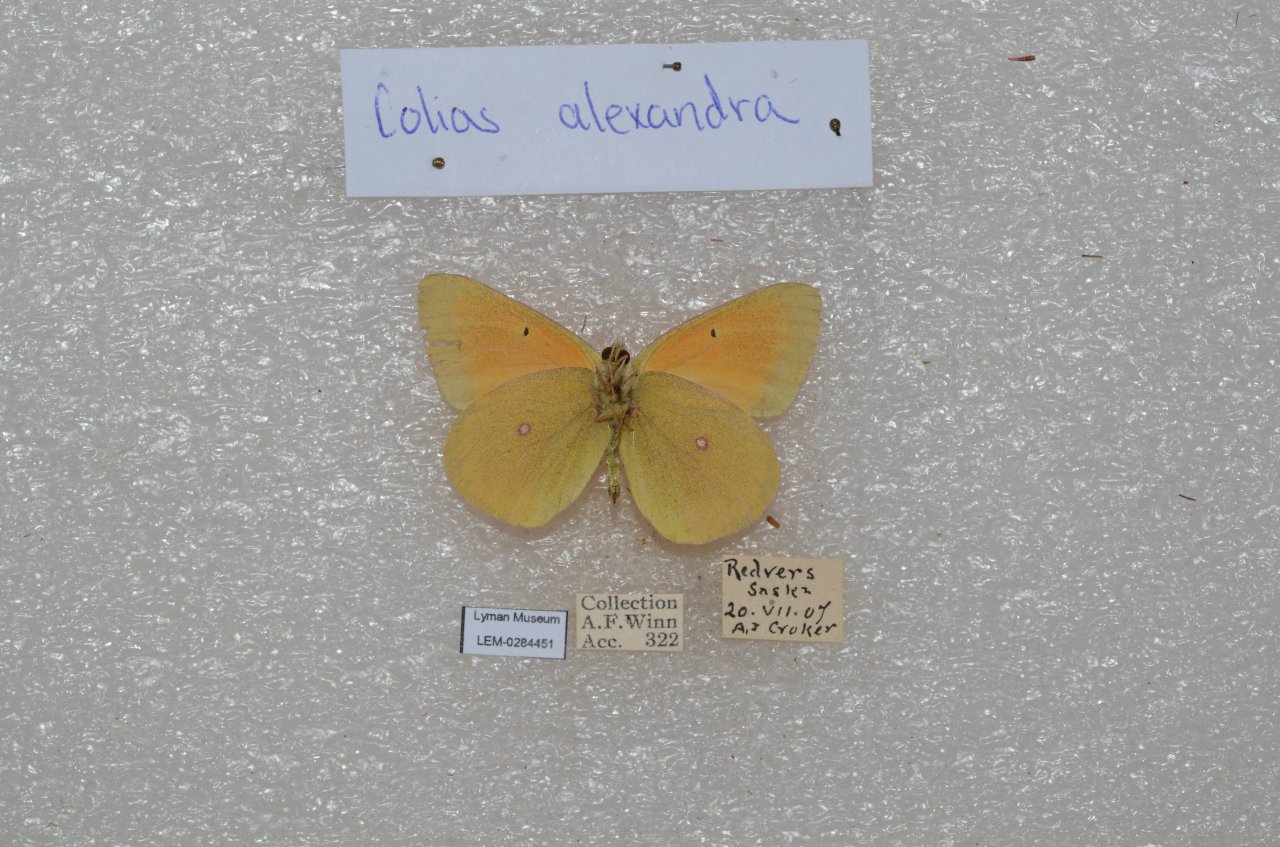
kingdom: Animalia
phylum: Arthropoda
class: Insecta
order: Lepidoptera
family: Pieridae
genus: Colias
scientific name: Colias christina
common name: Christina Sulphur
